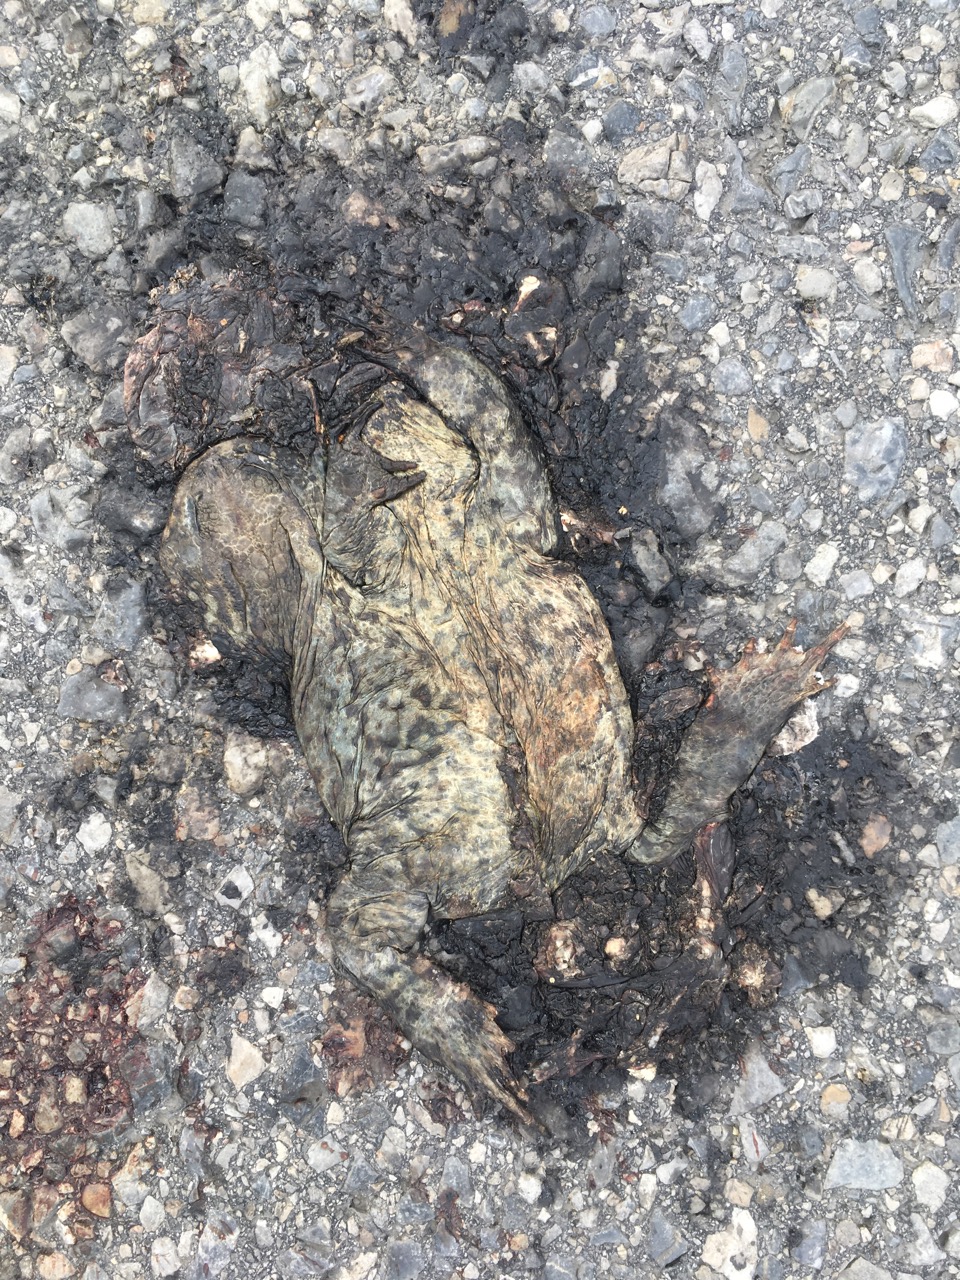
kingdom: Animalia
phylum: Chordata
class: Amphibia
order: Anura
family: Bufonidae
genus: Bufo
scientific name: Bufo bufo
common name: Common toad
